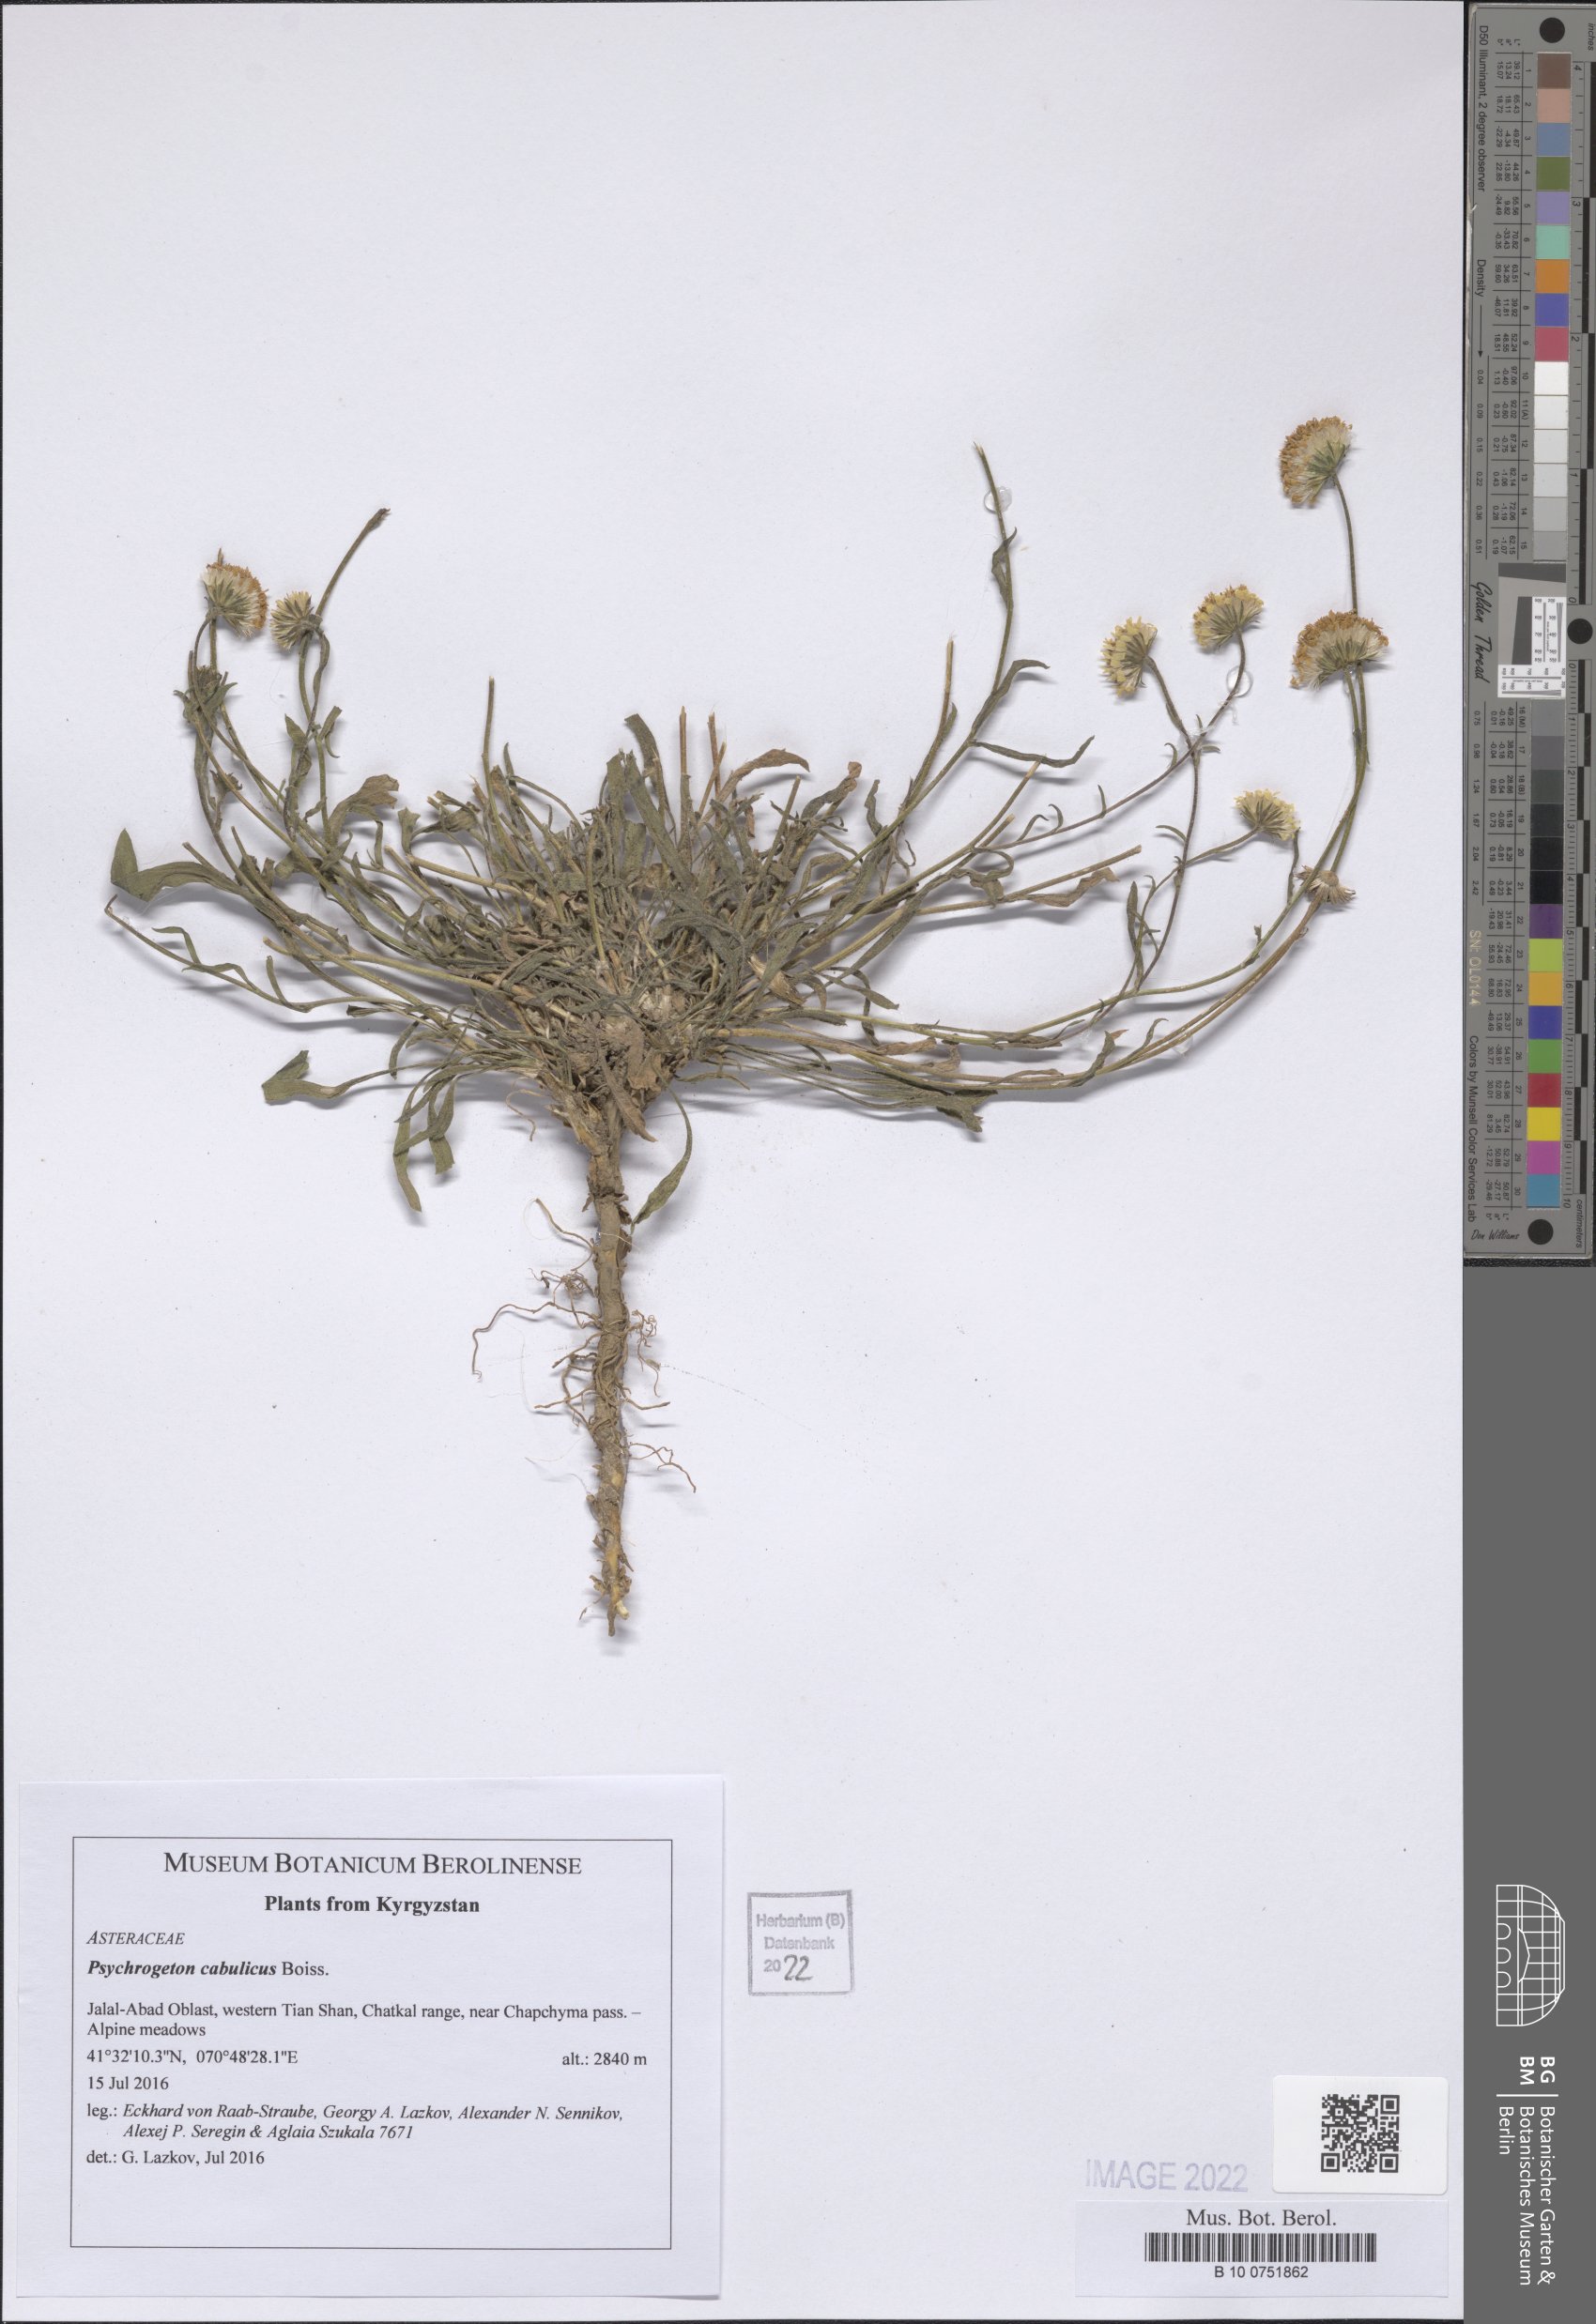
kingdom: Plantae
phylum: Tracheophyta
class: Magnoliopsida
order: Asterales
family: Asteraceae
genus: Psychrogeton
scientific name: Psychrogeton cabulicus
